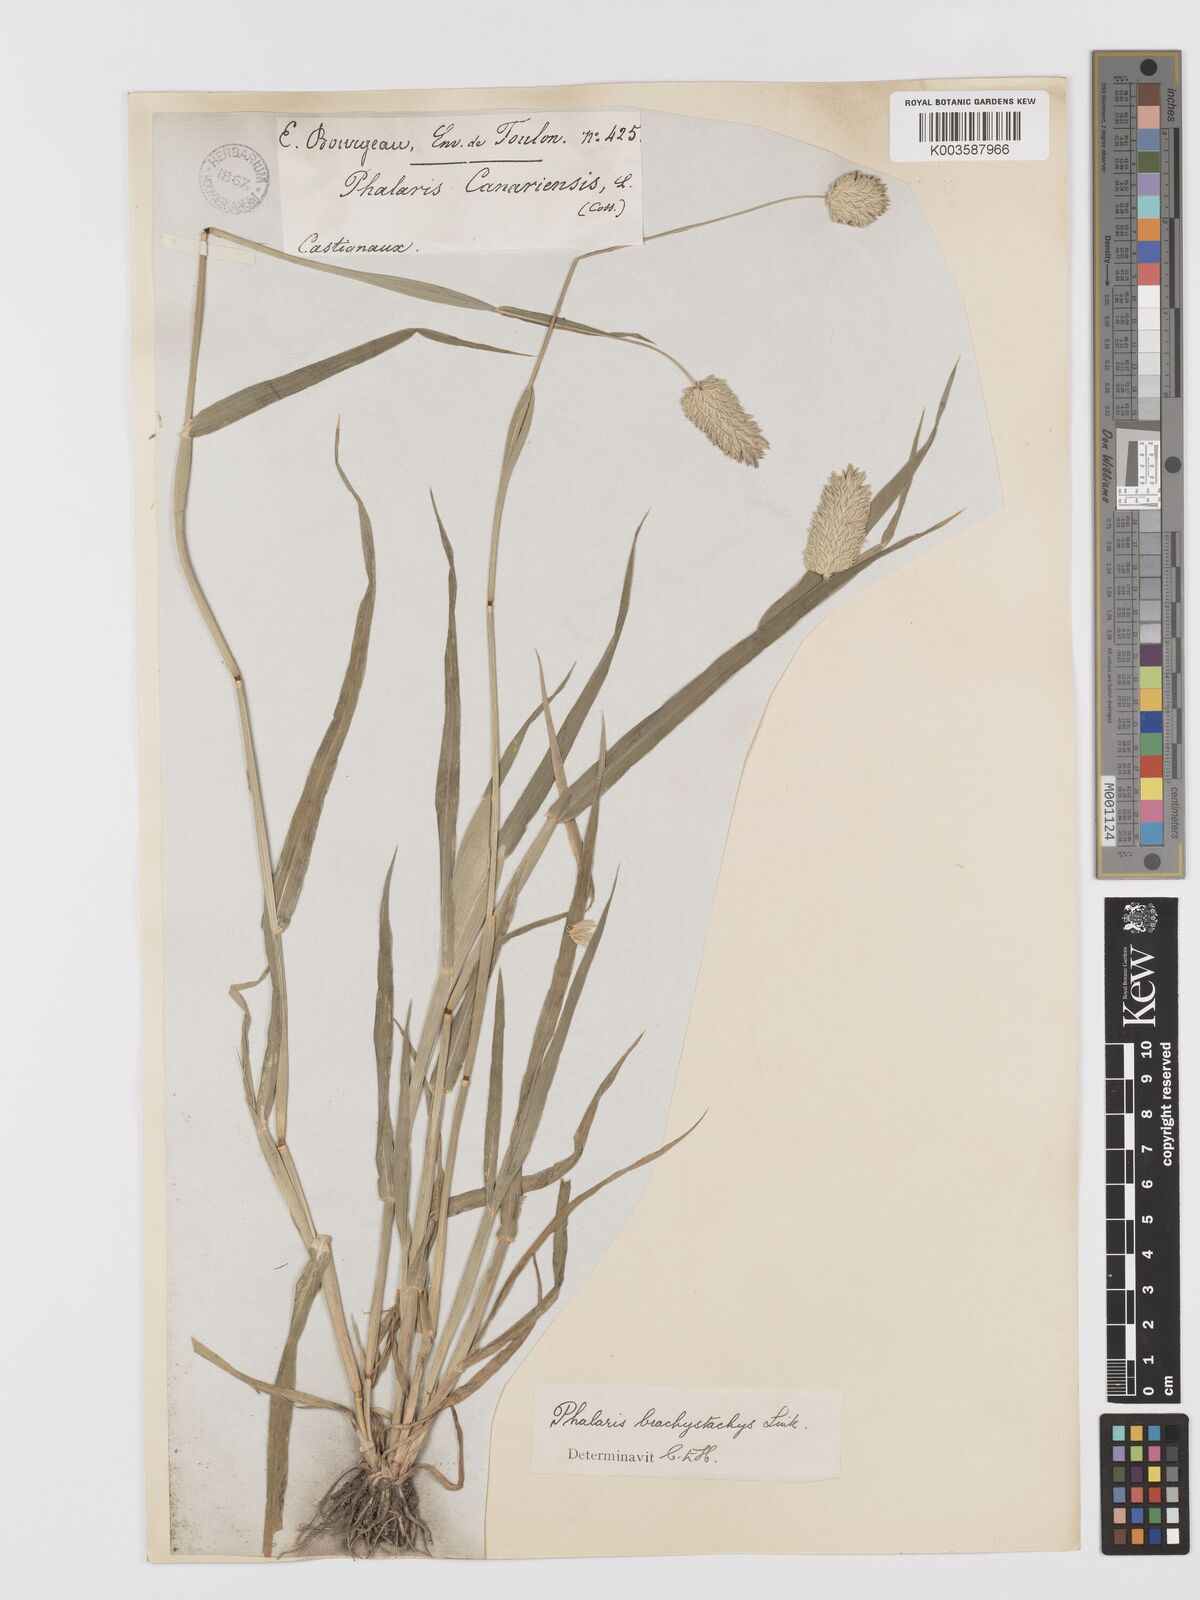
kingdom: Plantae
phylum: Tracheophyta
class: Liliopsida
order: Poales
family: Poaceae
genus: Phalaris
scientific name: Phalaris brachystachys
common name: Confused canary-grass
